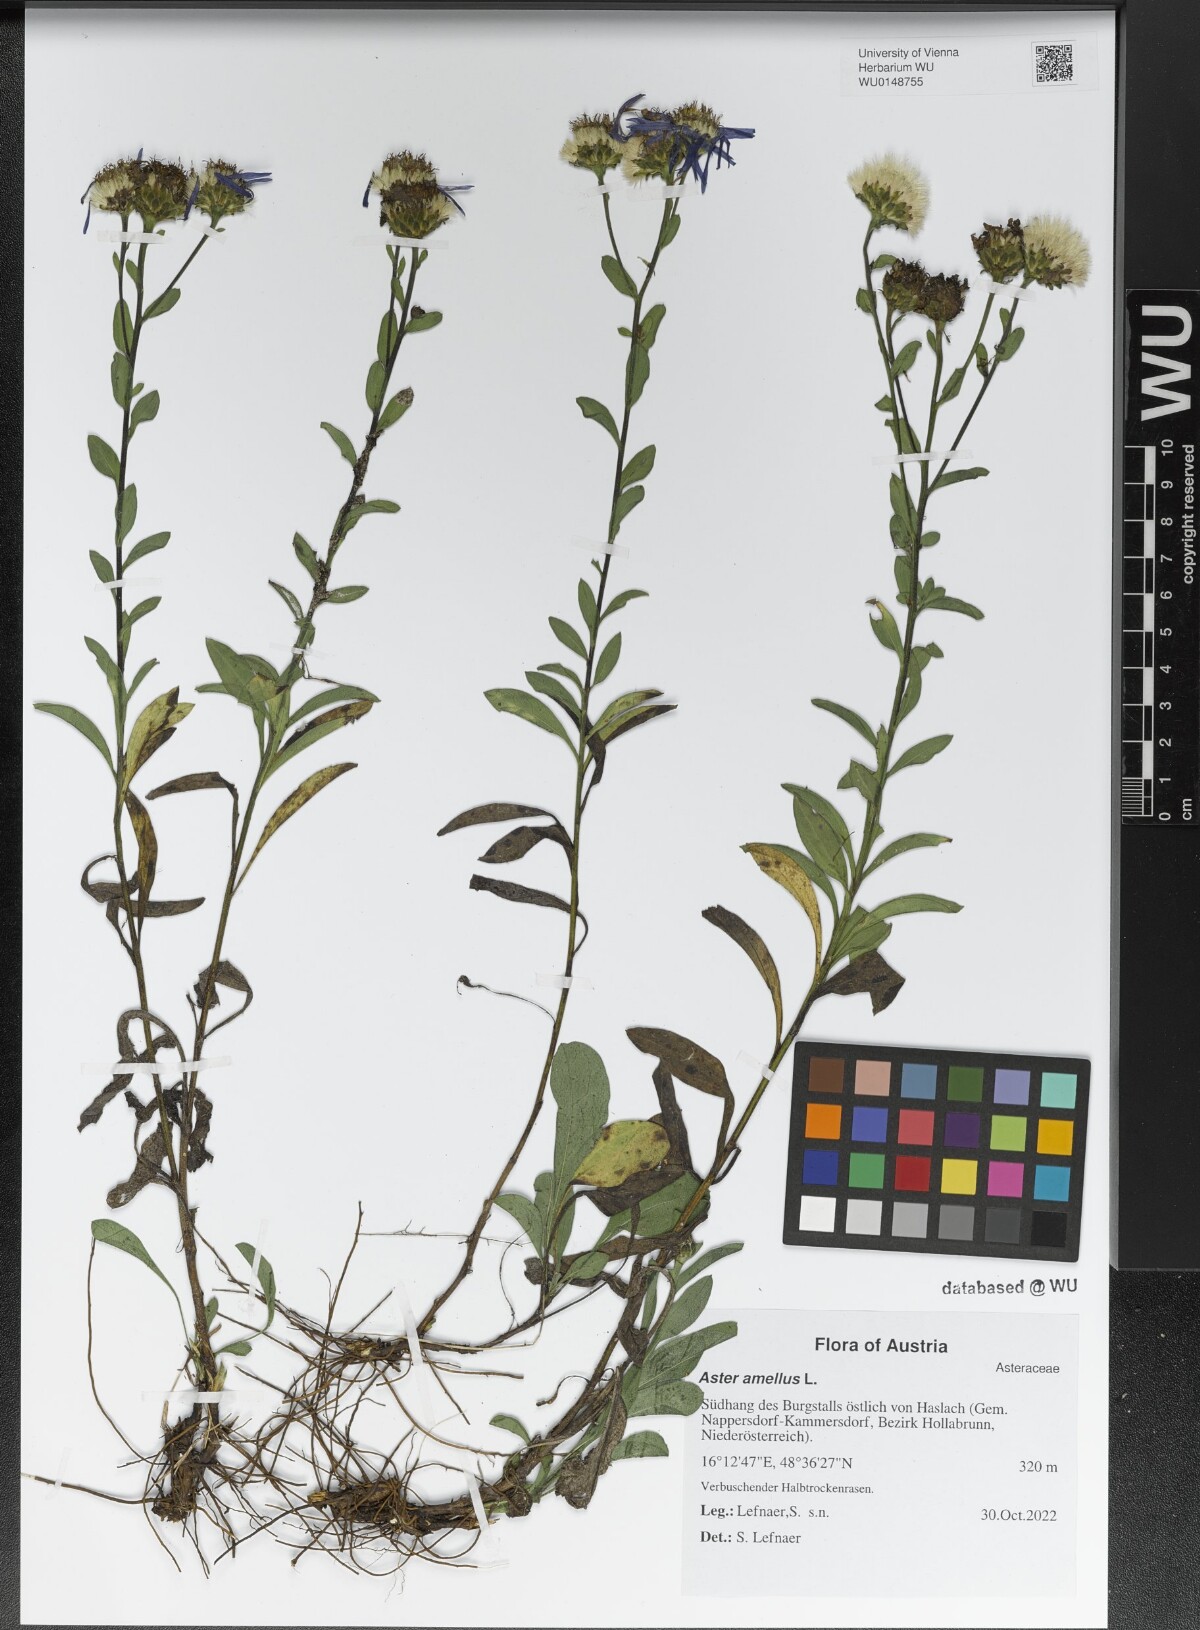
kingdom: Plantae
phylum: Tracheophyta
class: Magnoliopsida
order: Asterales
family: Asteraceae
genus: Aster
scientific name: Aster amellus
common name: European michaelmas daisy
